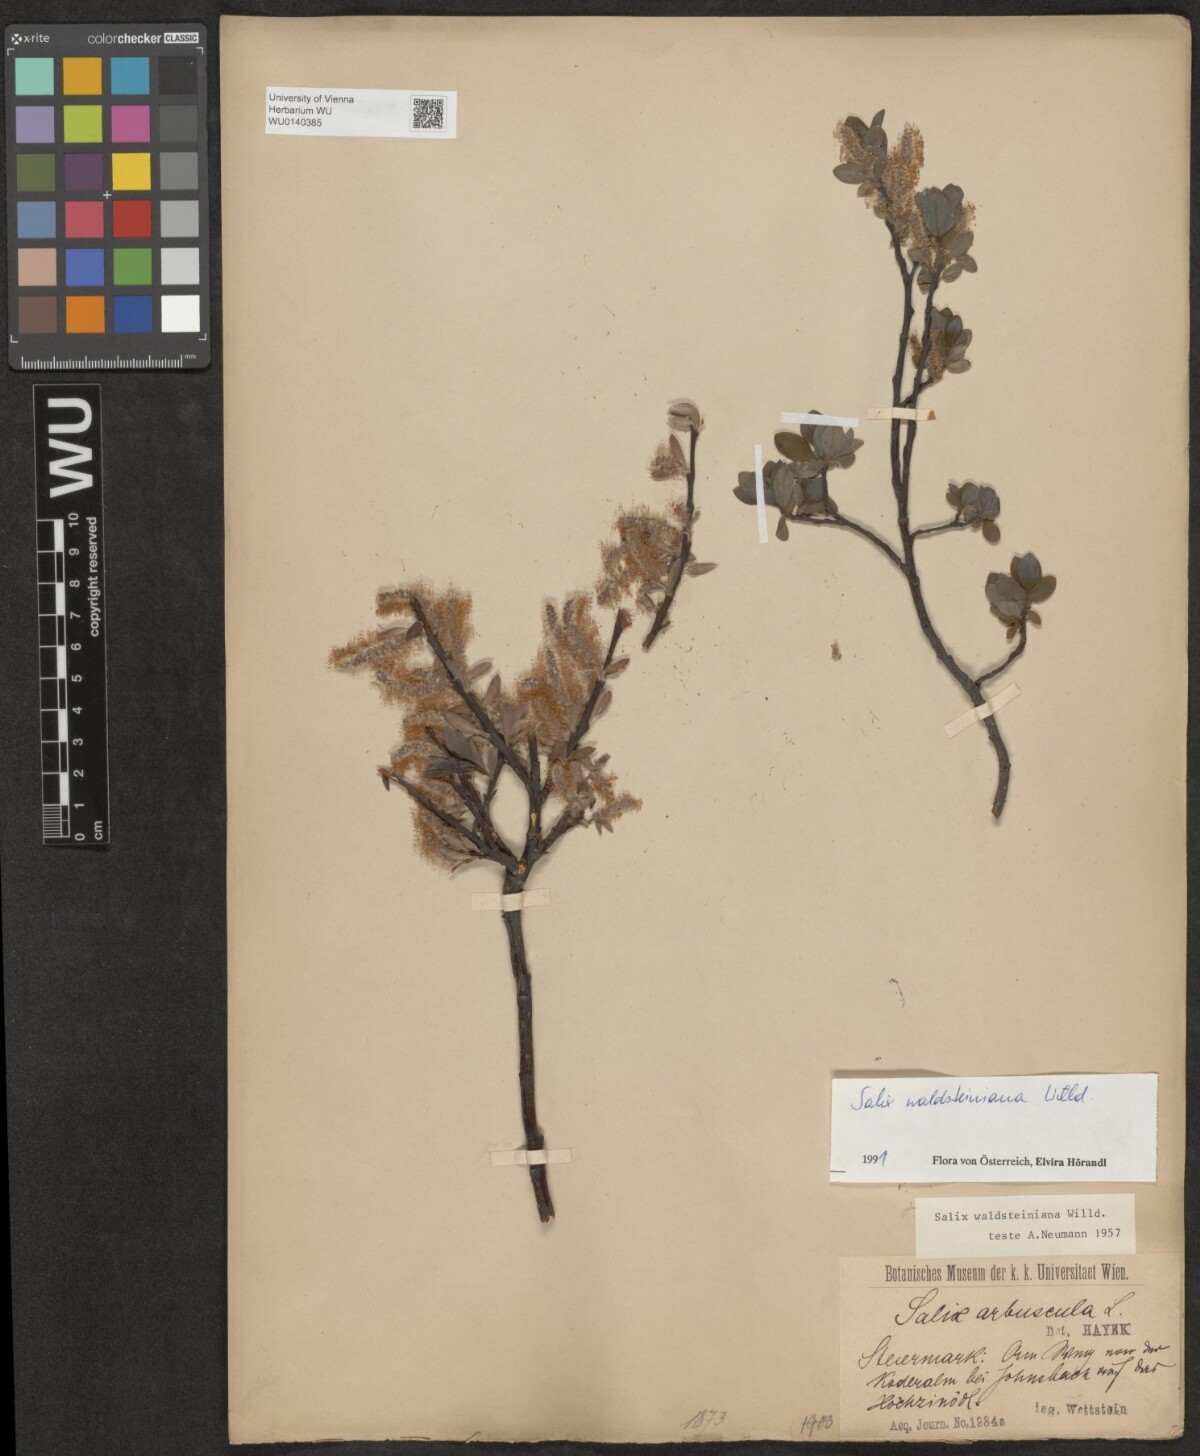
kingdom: Plantae
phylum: Tracheophyta
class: Magnoliopsida
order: Malpighiales
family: Salicaceae
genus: Salix
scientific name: Salix waldsteiniana
